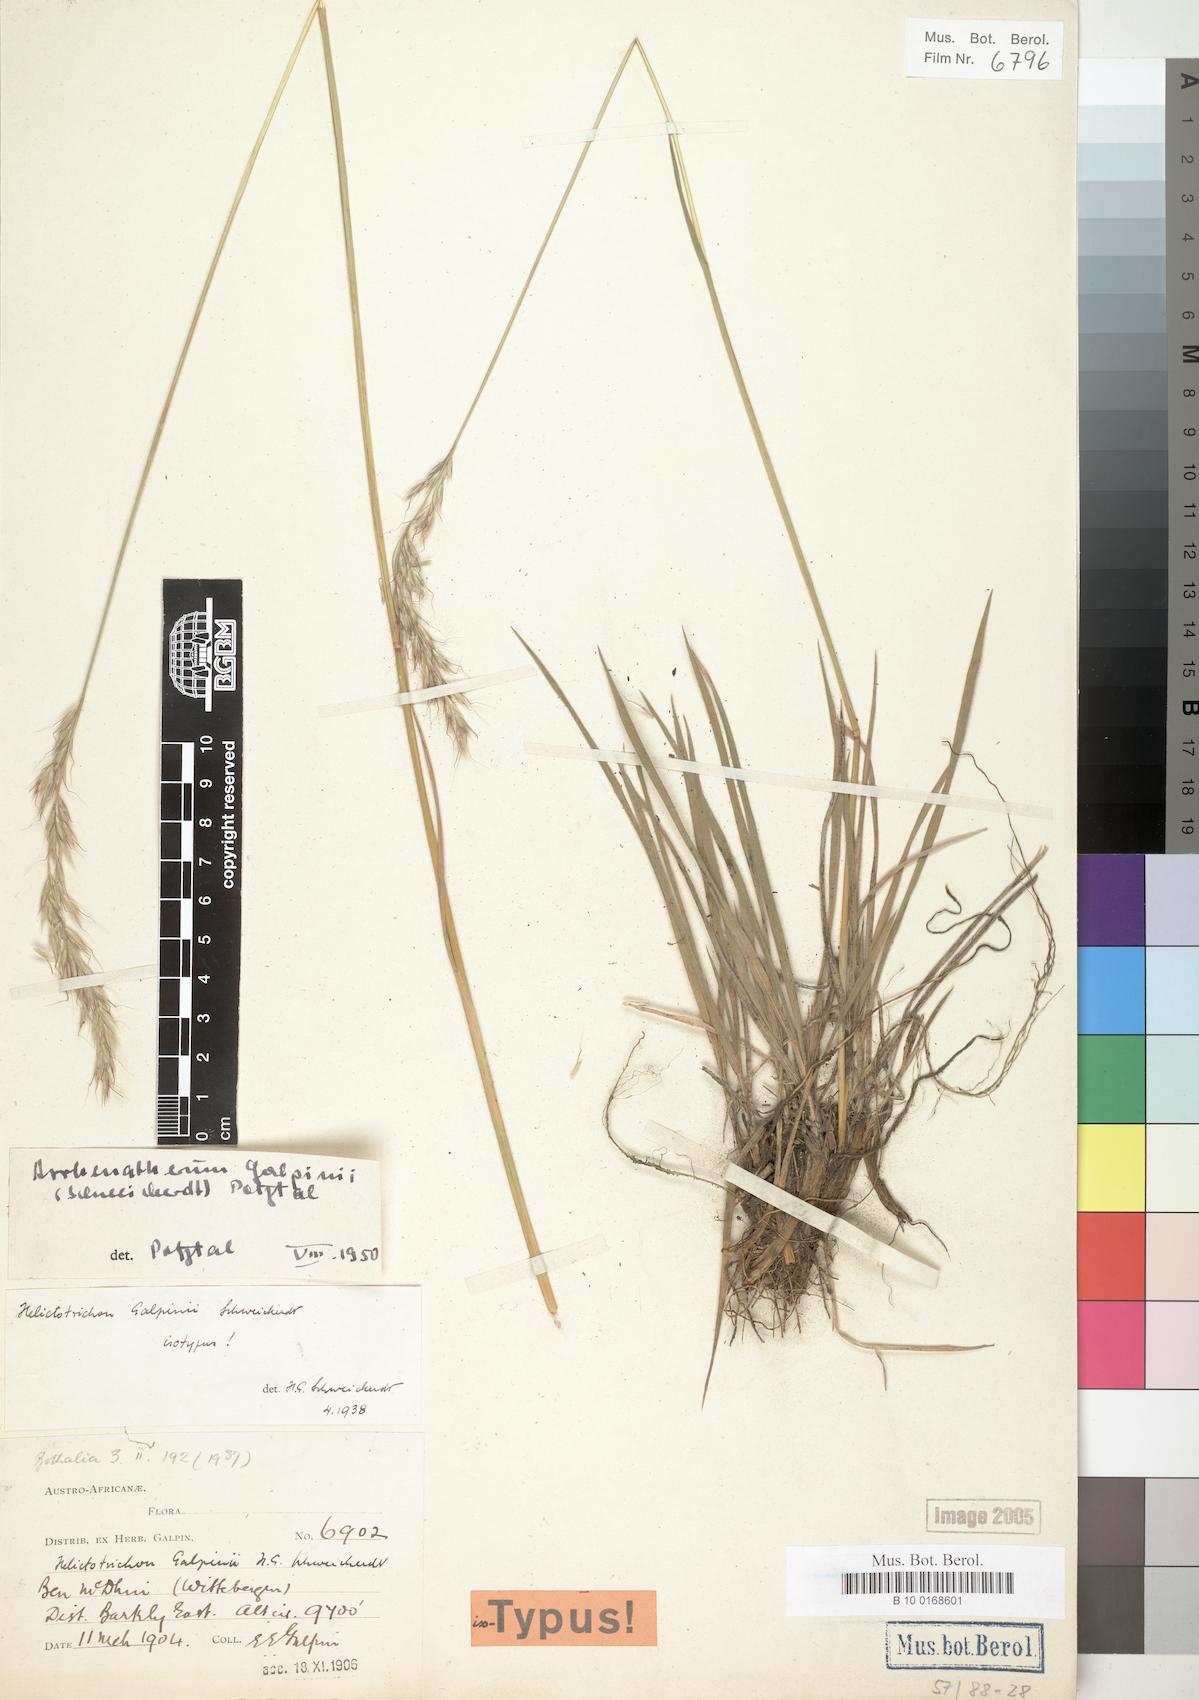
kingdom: Plantae
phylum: Tracheophyta
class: Liliopsida
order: Poales
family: Poaceae
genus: Trisetopsis
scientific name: Trisetopsis galpinii
